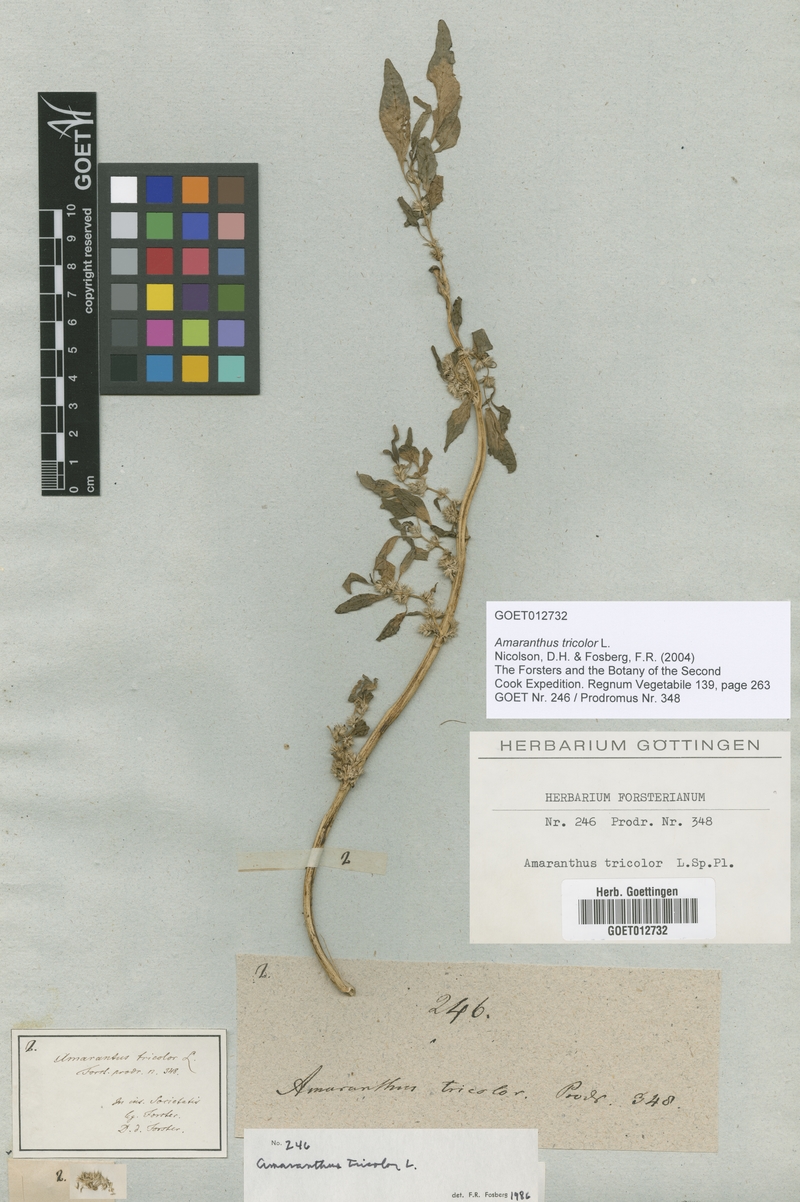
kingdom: Plantae
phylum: Tracheophyta
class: Magnoliopsida
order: Caryophyllales
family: Amaranthaceae
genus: Amaranthus
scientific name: Amaranthus tricolor
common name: Joseph's-coat
